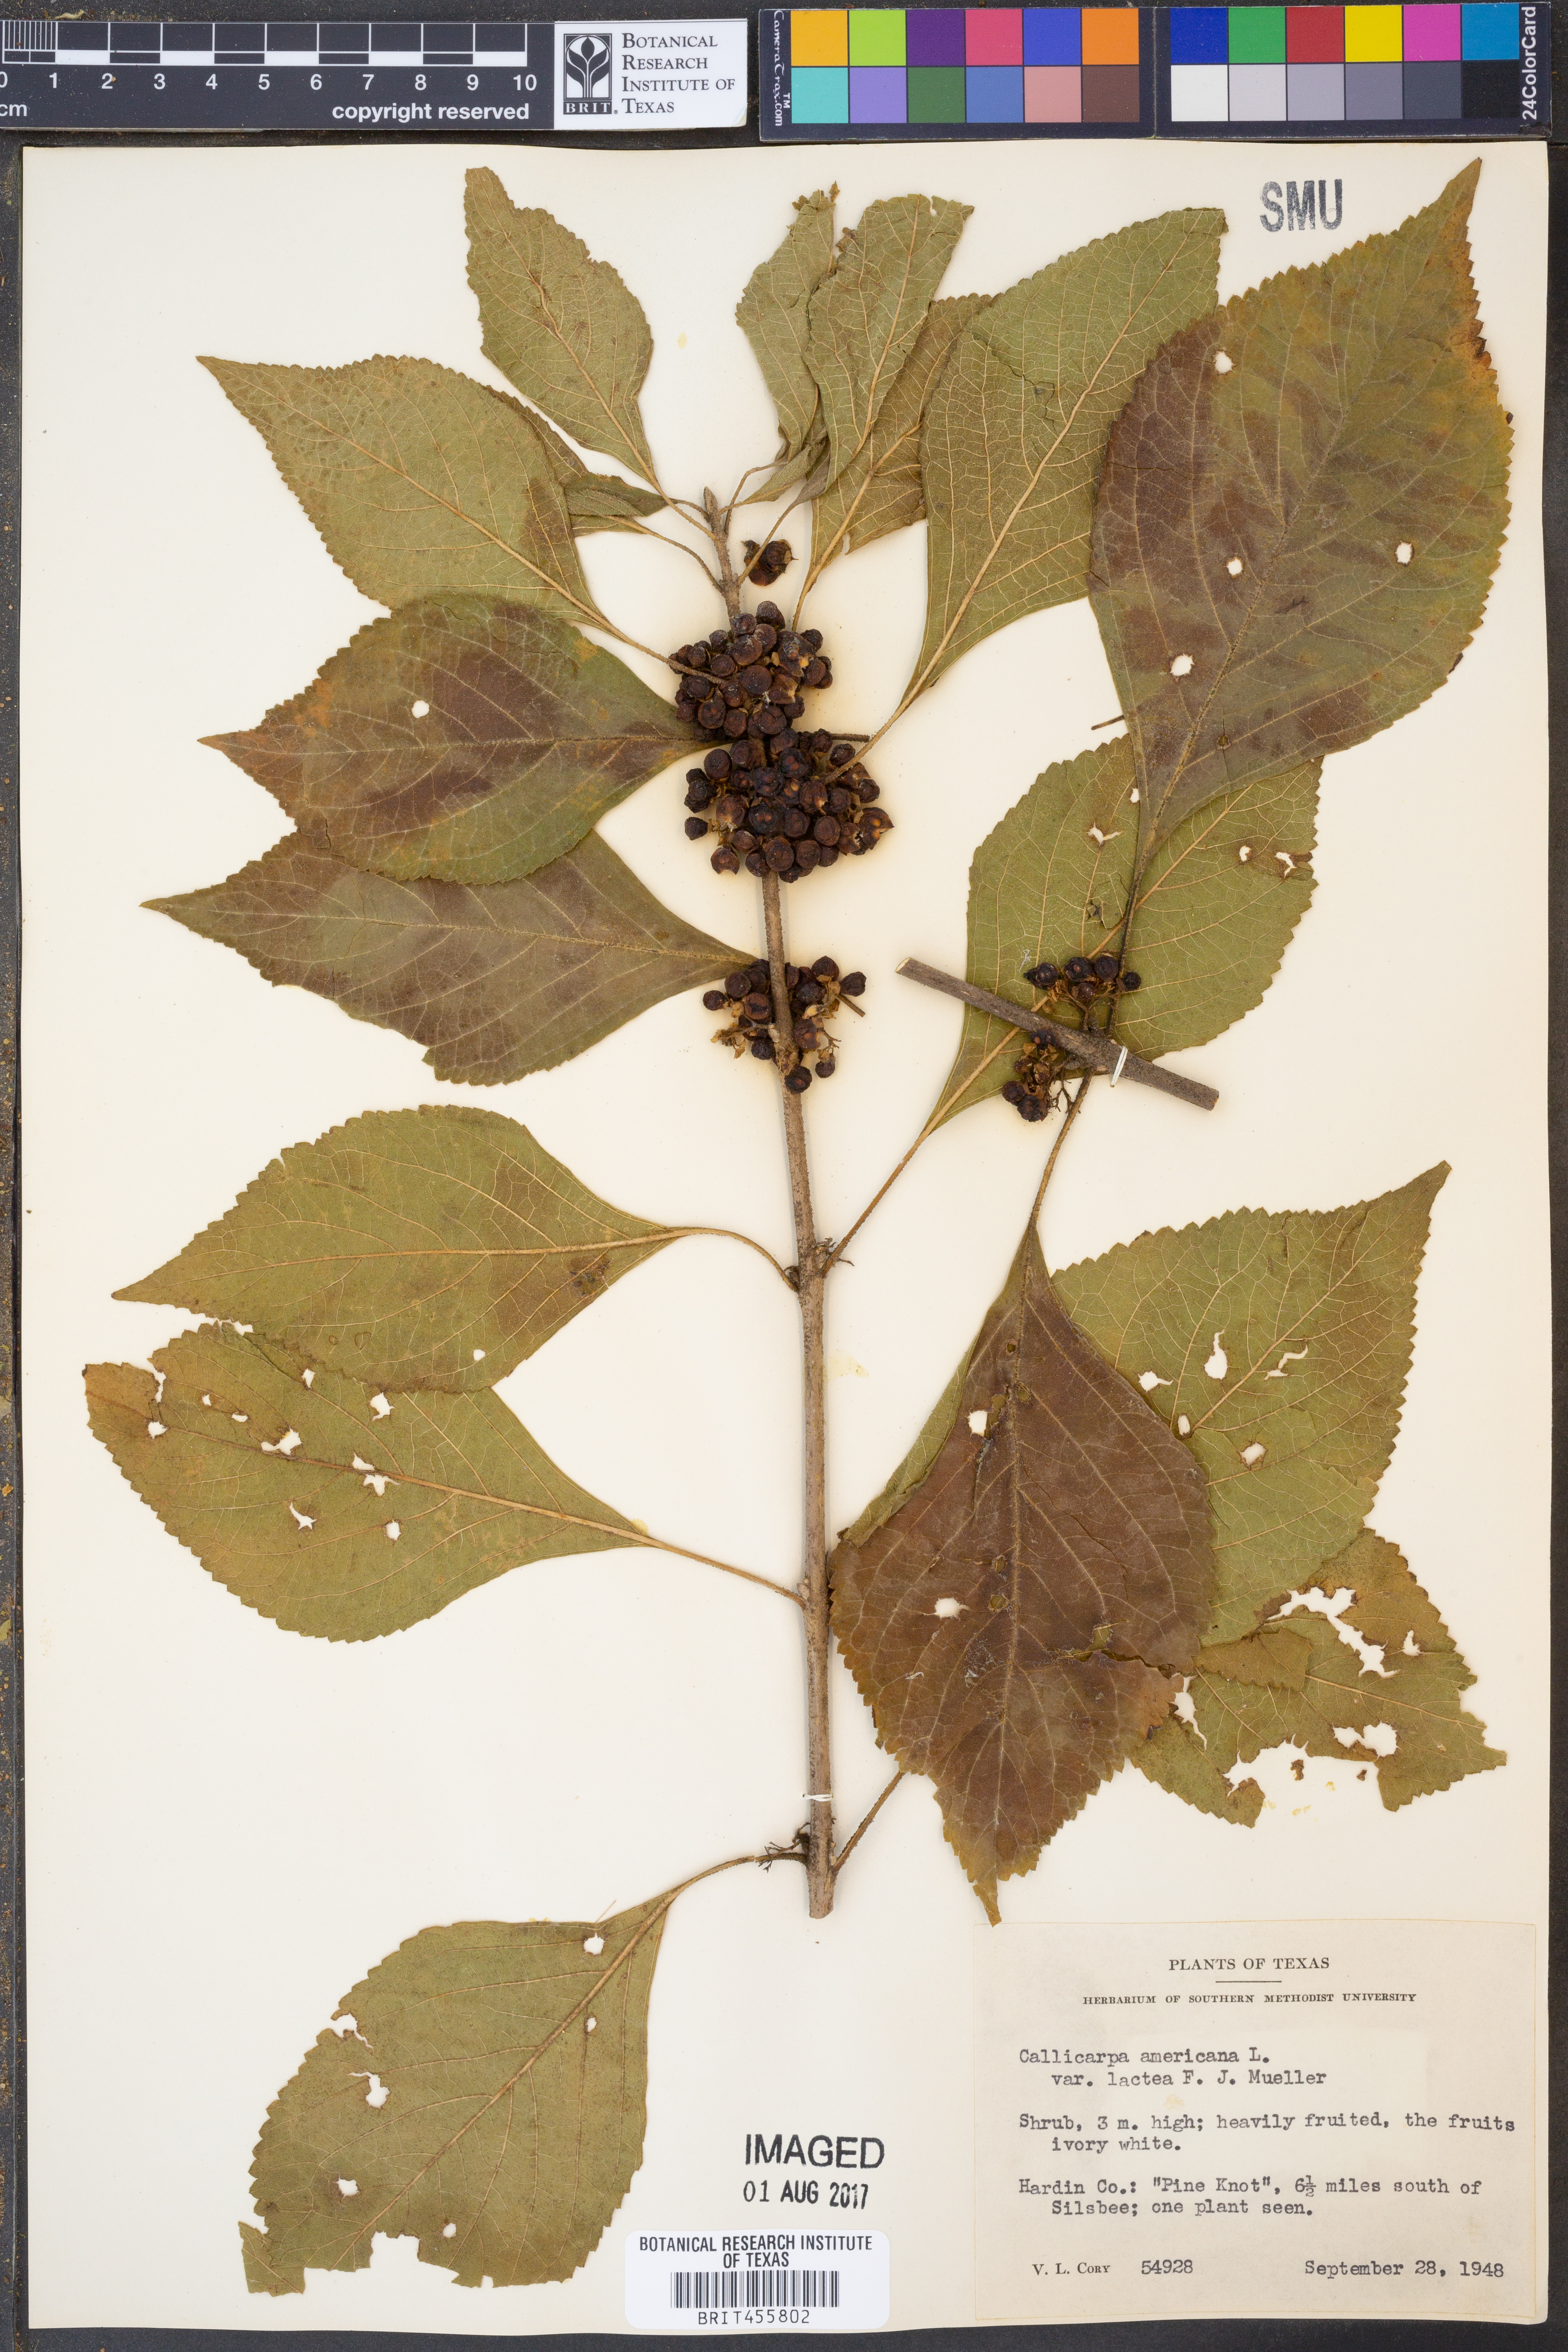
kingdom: Plantae
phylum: Tracheophyta
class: Magnoliopsida
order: Lamiales
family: Lamiaceae
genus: Callicarpa
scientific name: Callicarpa americana
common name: American beautyberry
